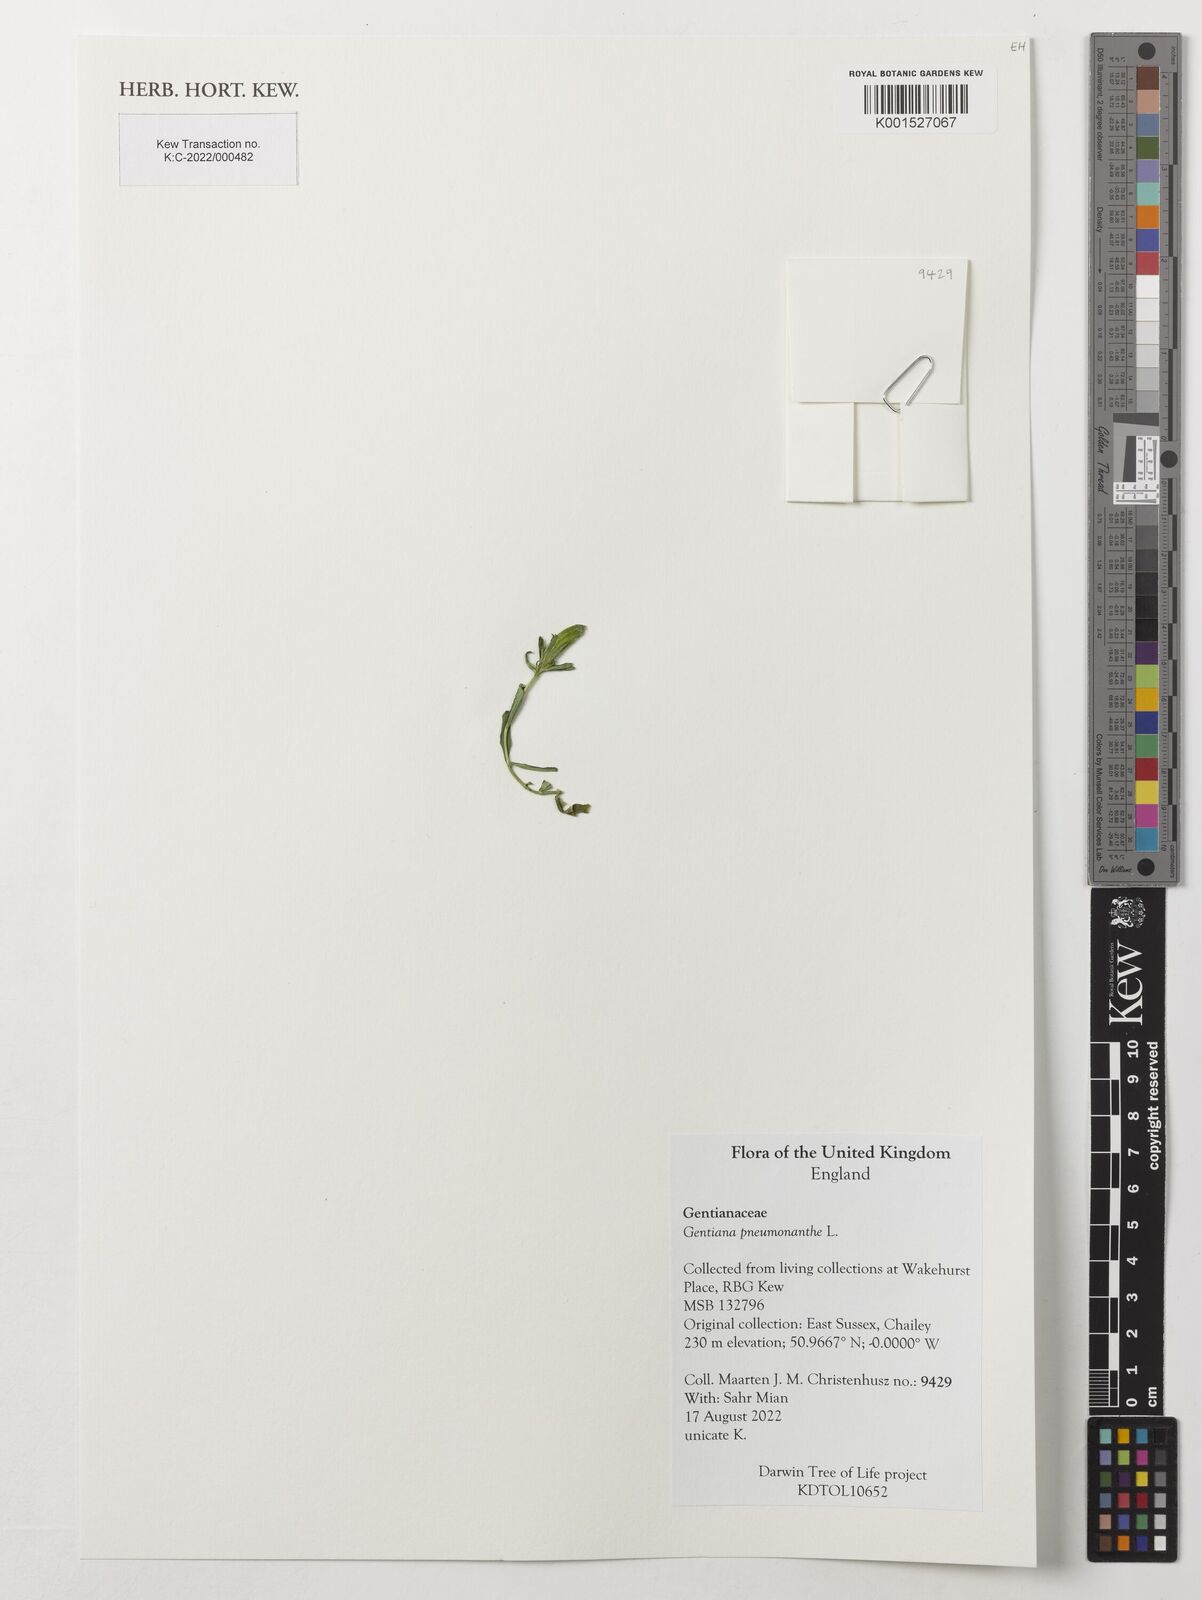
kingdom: Plantae
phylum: Tracheophyta
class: Magnoliopsida
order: Gentianales
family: Gentianaceae
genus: Gentiana
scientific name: Gentiana pneumonanthe
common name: Marsh gentian
